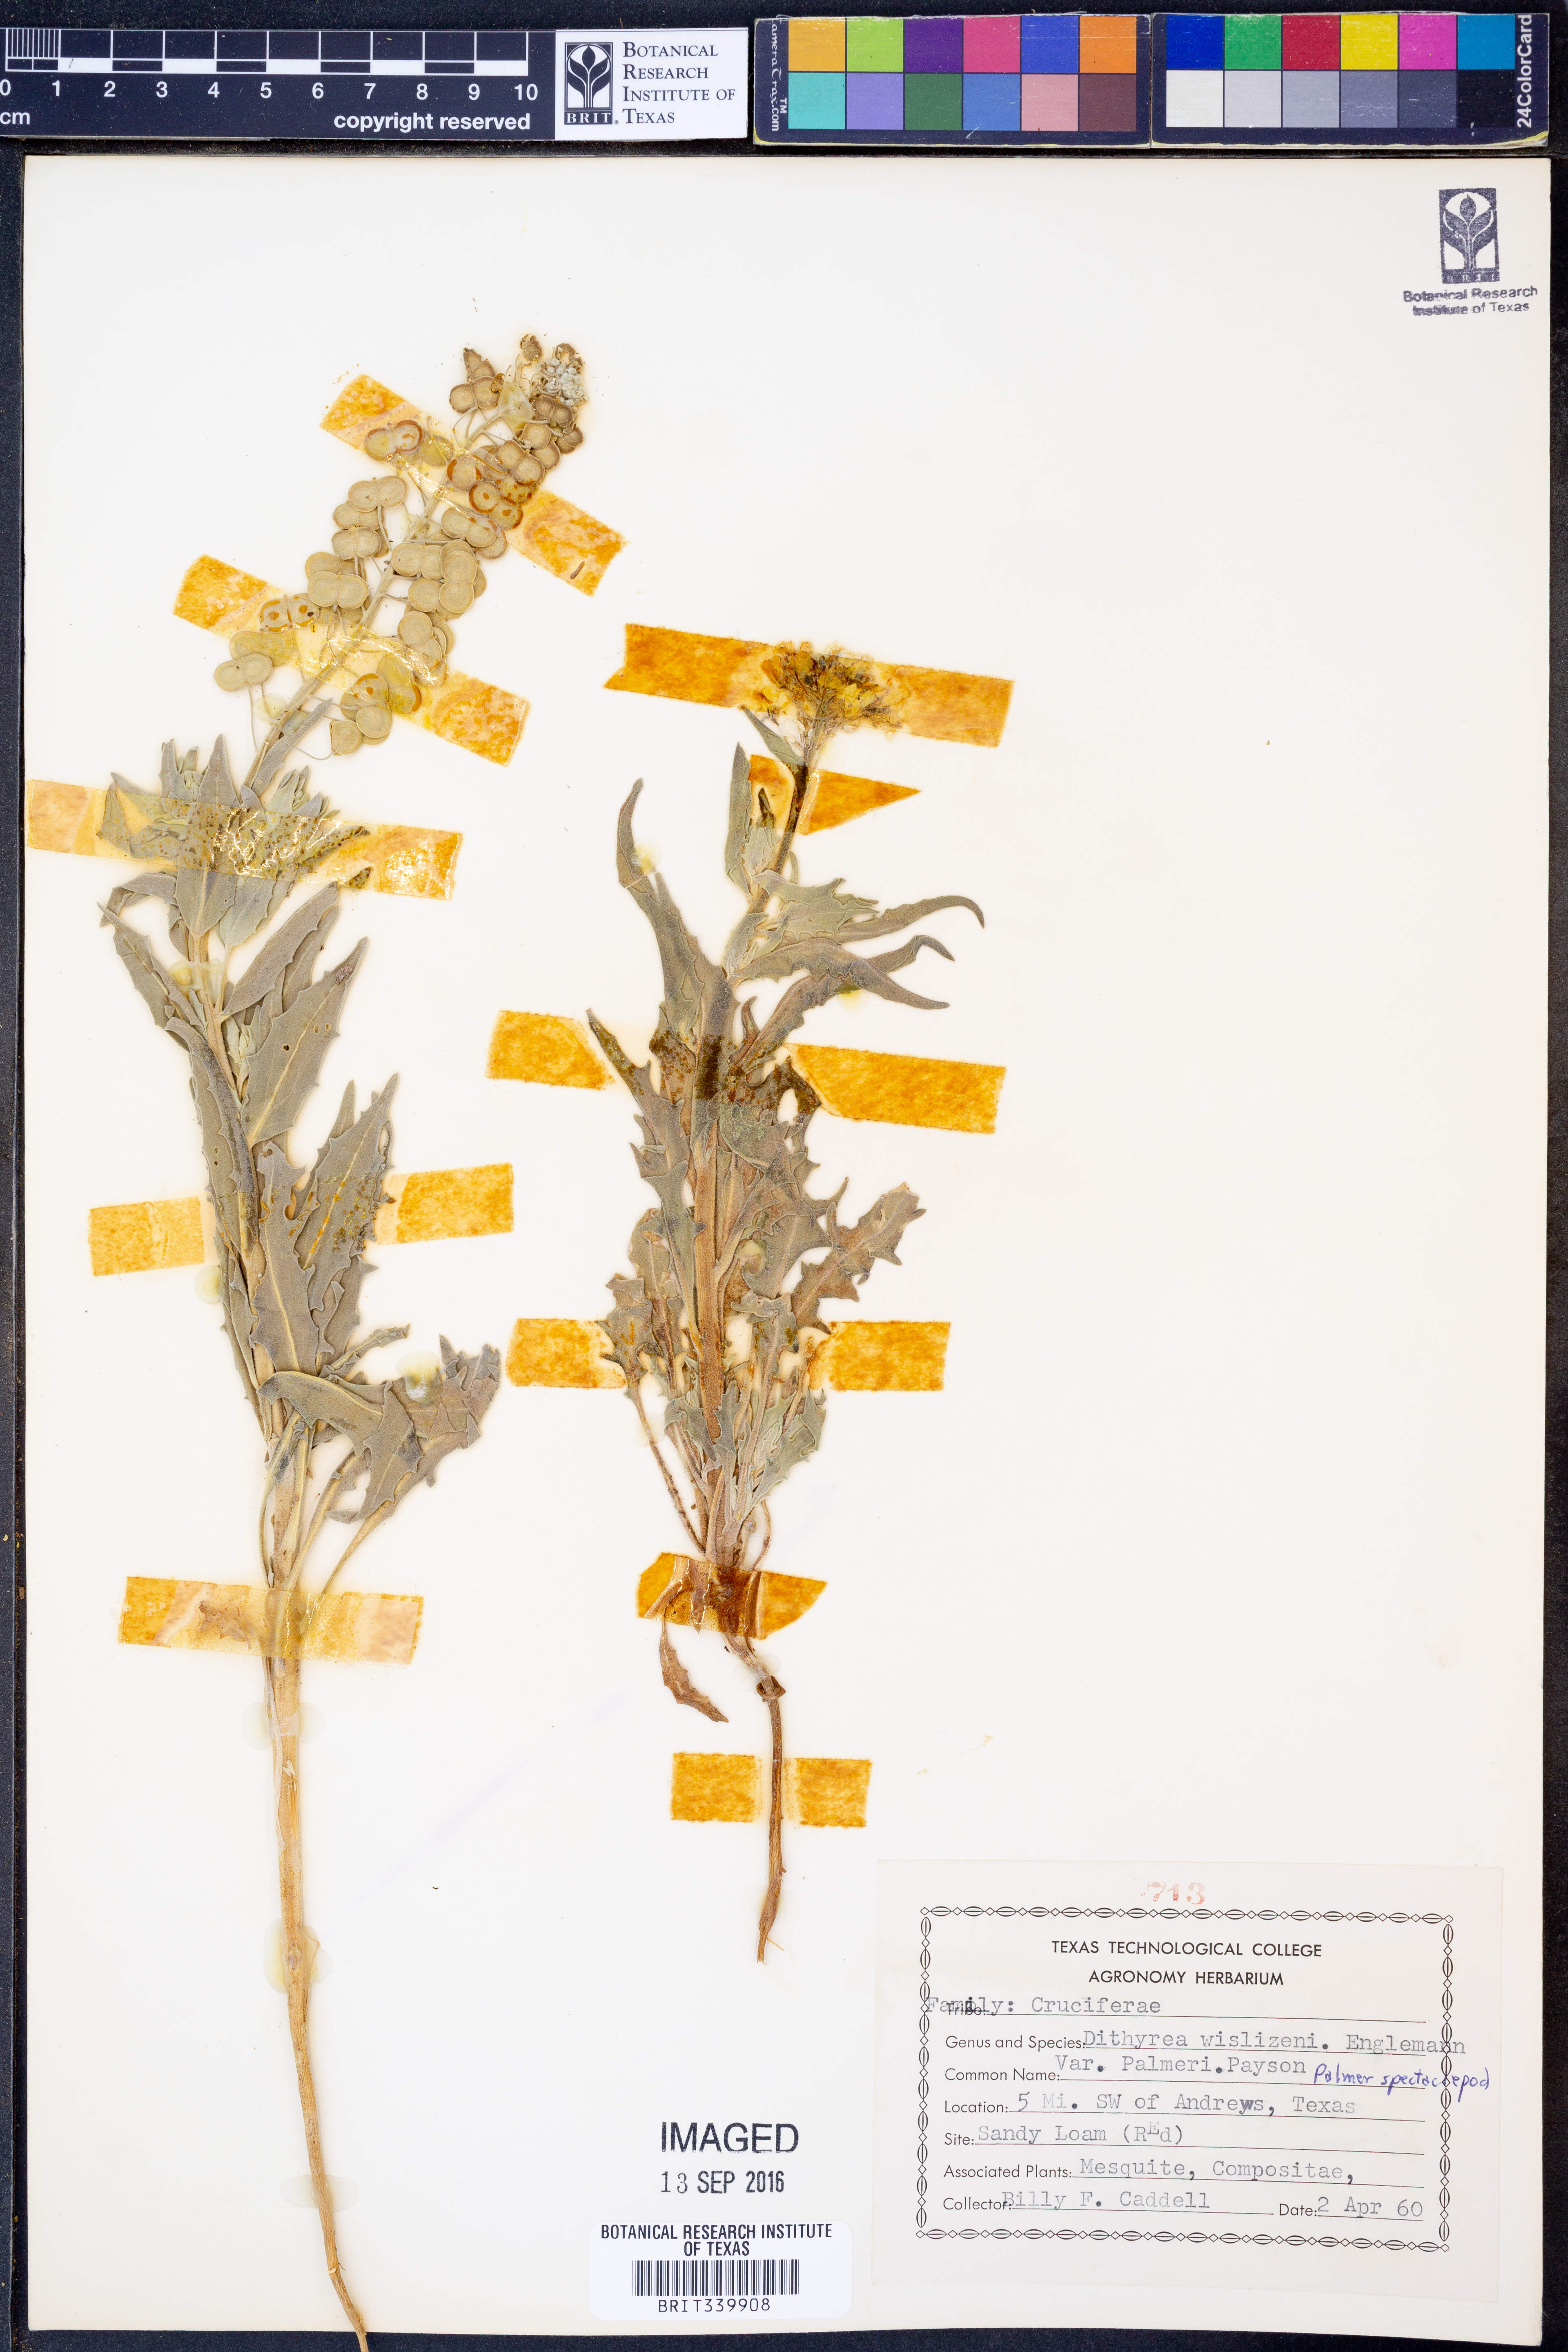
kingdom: Plantae
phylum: Tracheophyta
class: Magnoliopsida
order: Brassicales
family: Brassicaceae
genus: Dimorphocarpa
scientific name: Dimorphocarpa candicans
